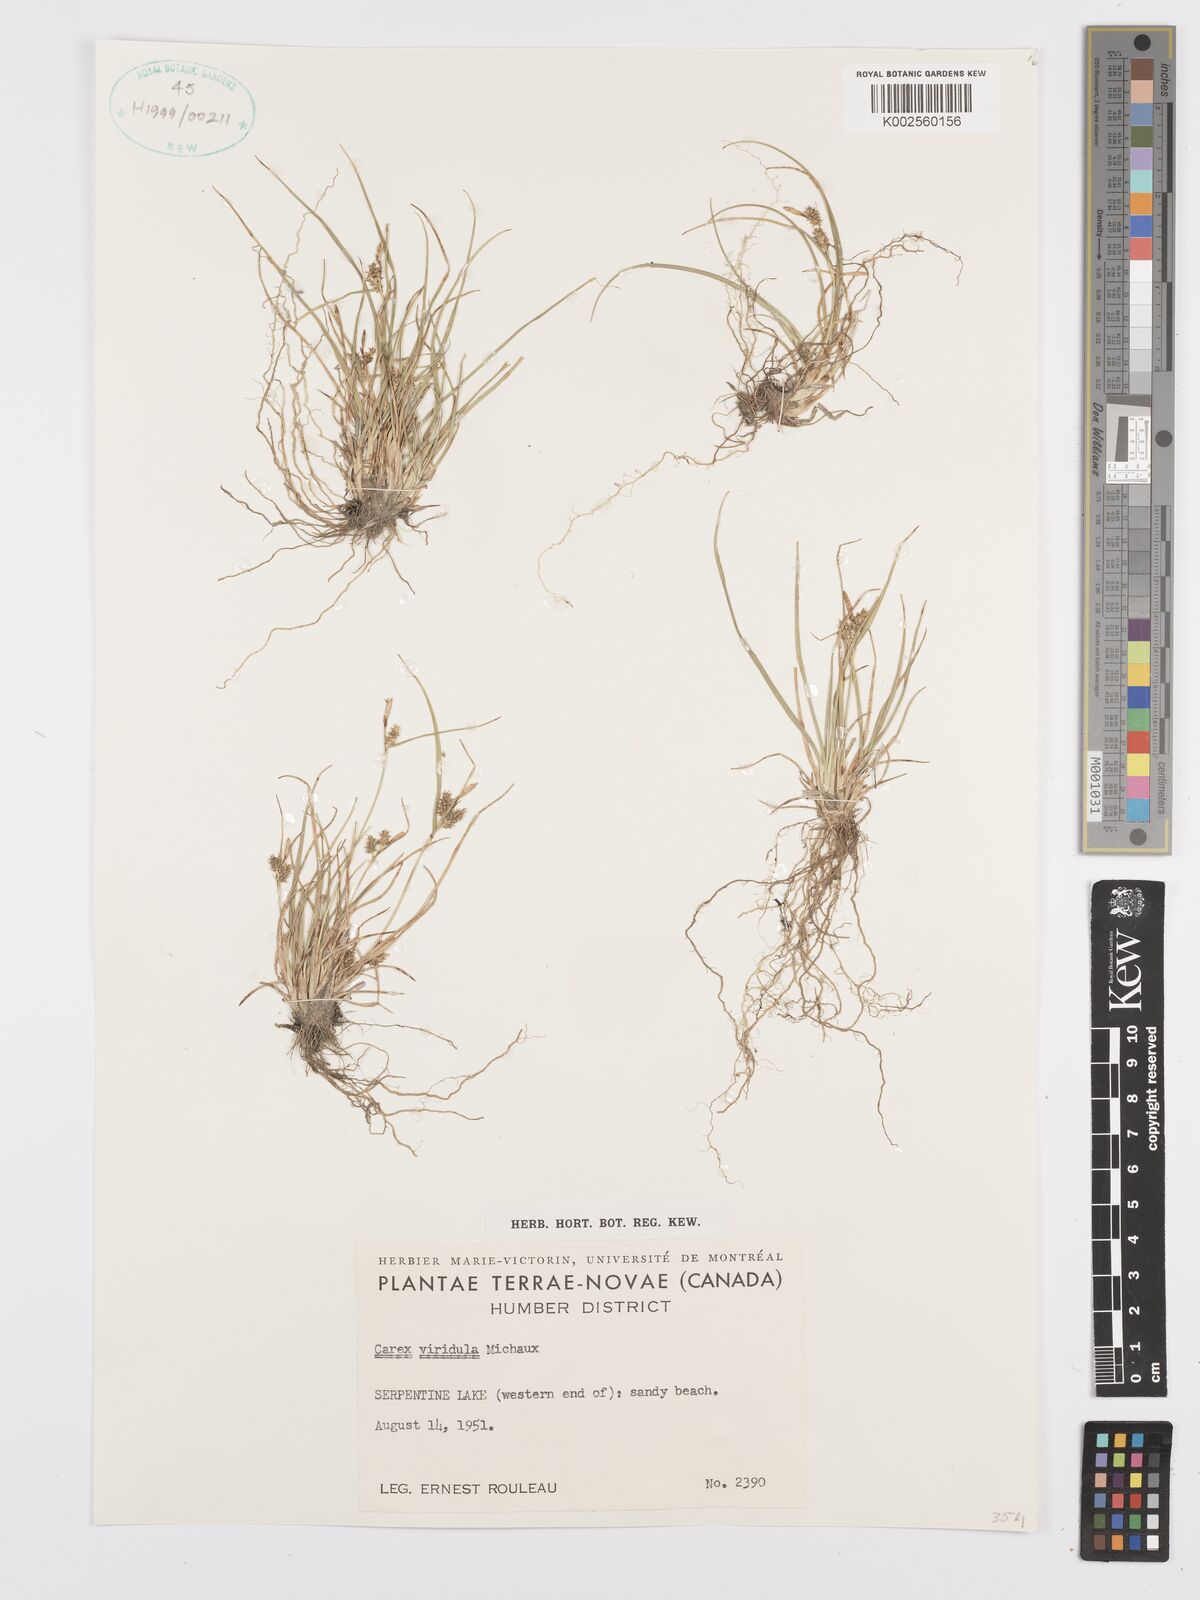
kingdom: Plantae
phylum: Tracheophyta
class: Liliopsida
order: Poales
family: Cyperaceae
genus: Carex
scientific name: Carex oederi
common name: Common & small-fruited yellow-sedge
